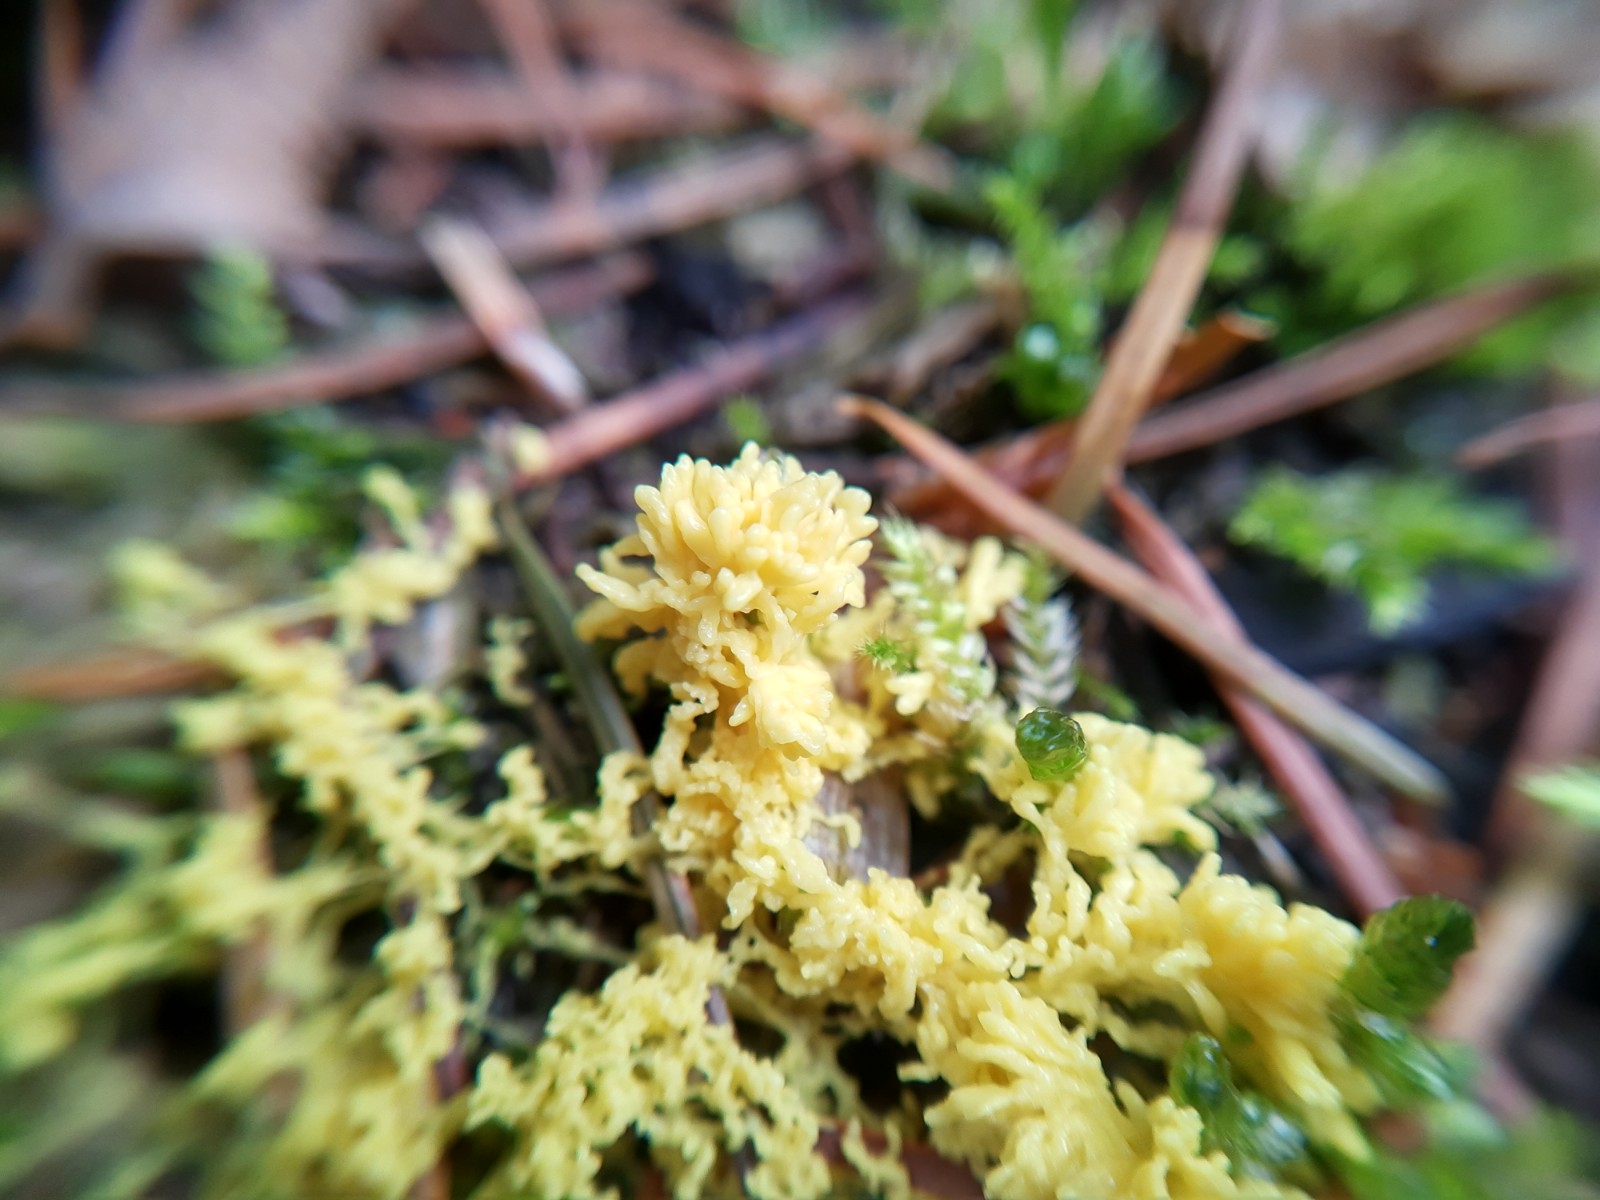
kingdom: Protozoa
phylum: Mycetozoa
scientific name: Mycetozoa
